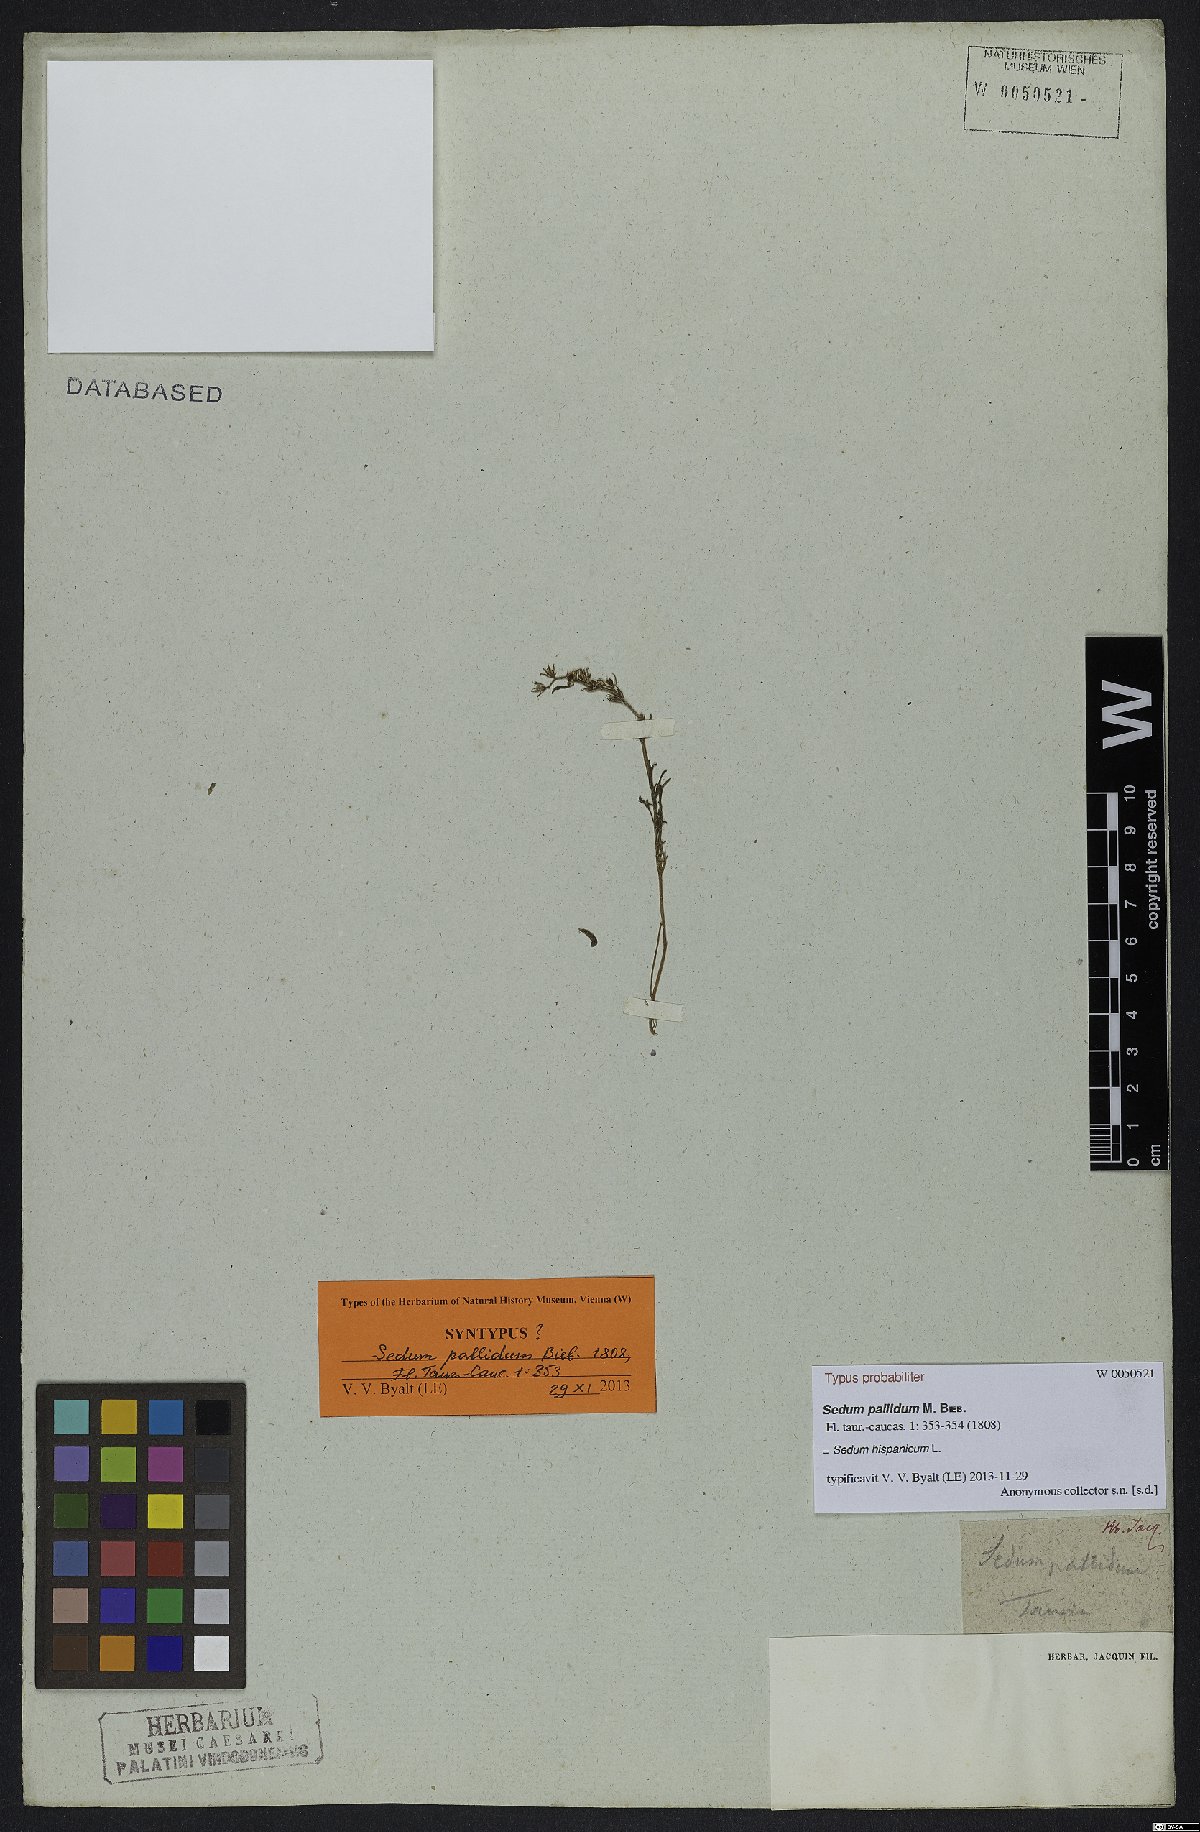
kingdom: Plantae
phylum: Tracheophyta
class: Magnoliopsida
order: Saxifragales
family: Crassulaceae
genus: Sedum
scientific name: Sedum hispanicum
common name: Spanish stonecrop
